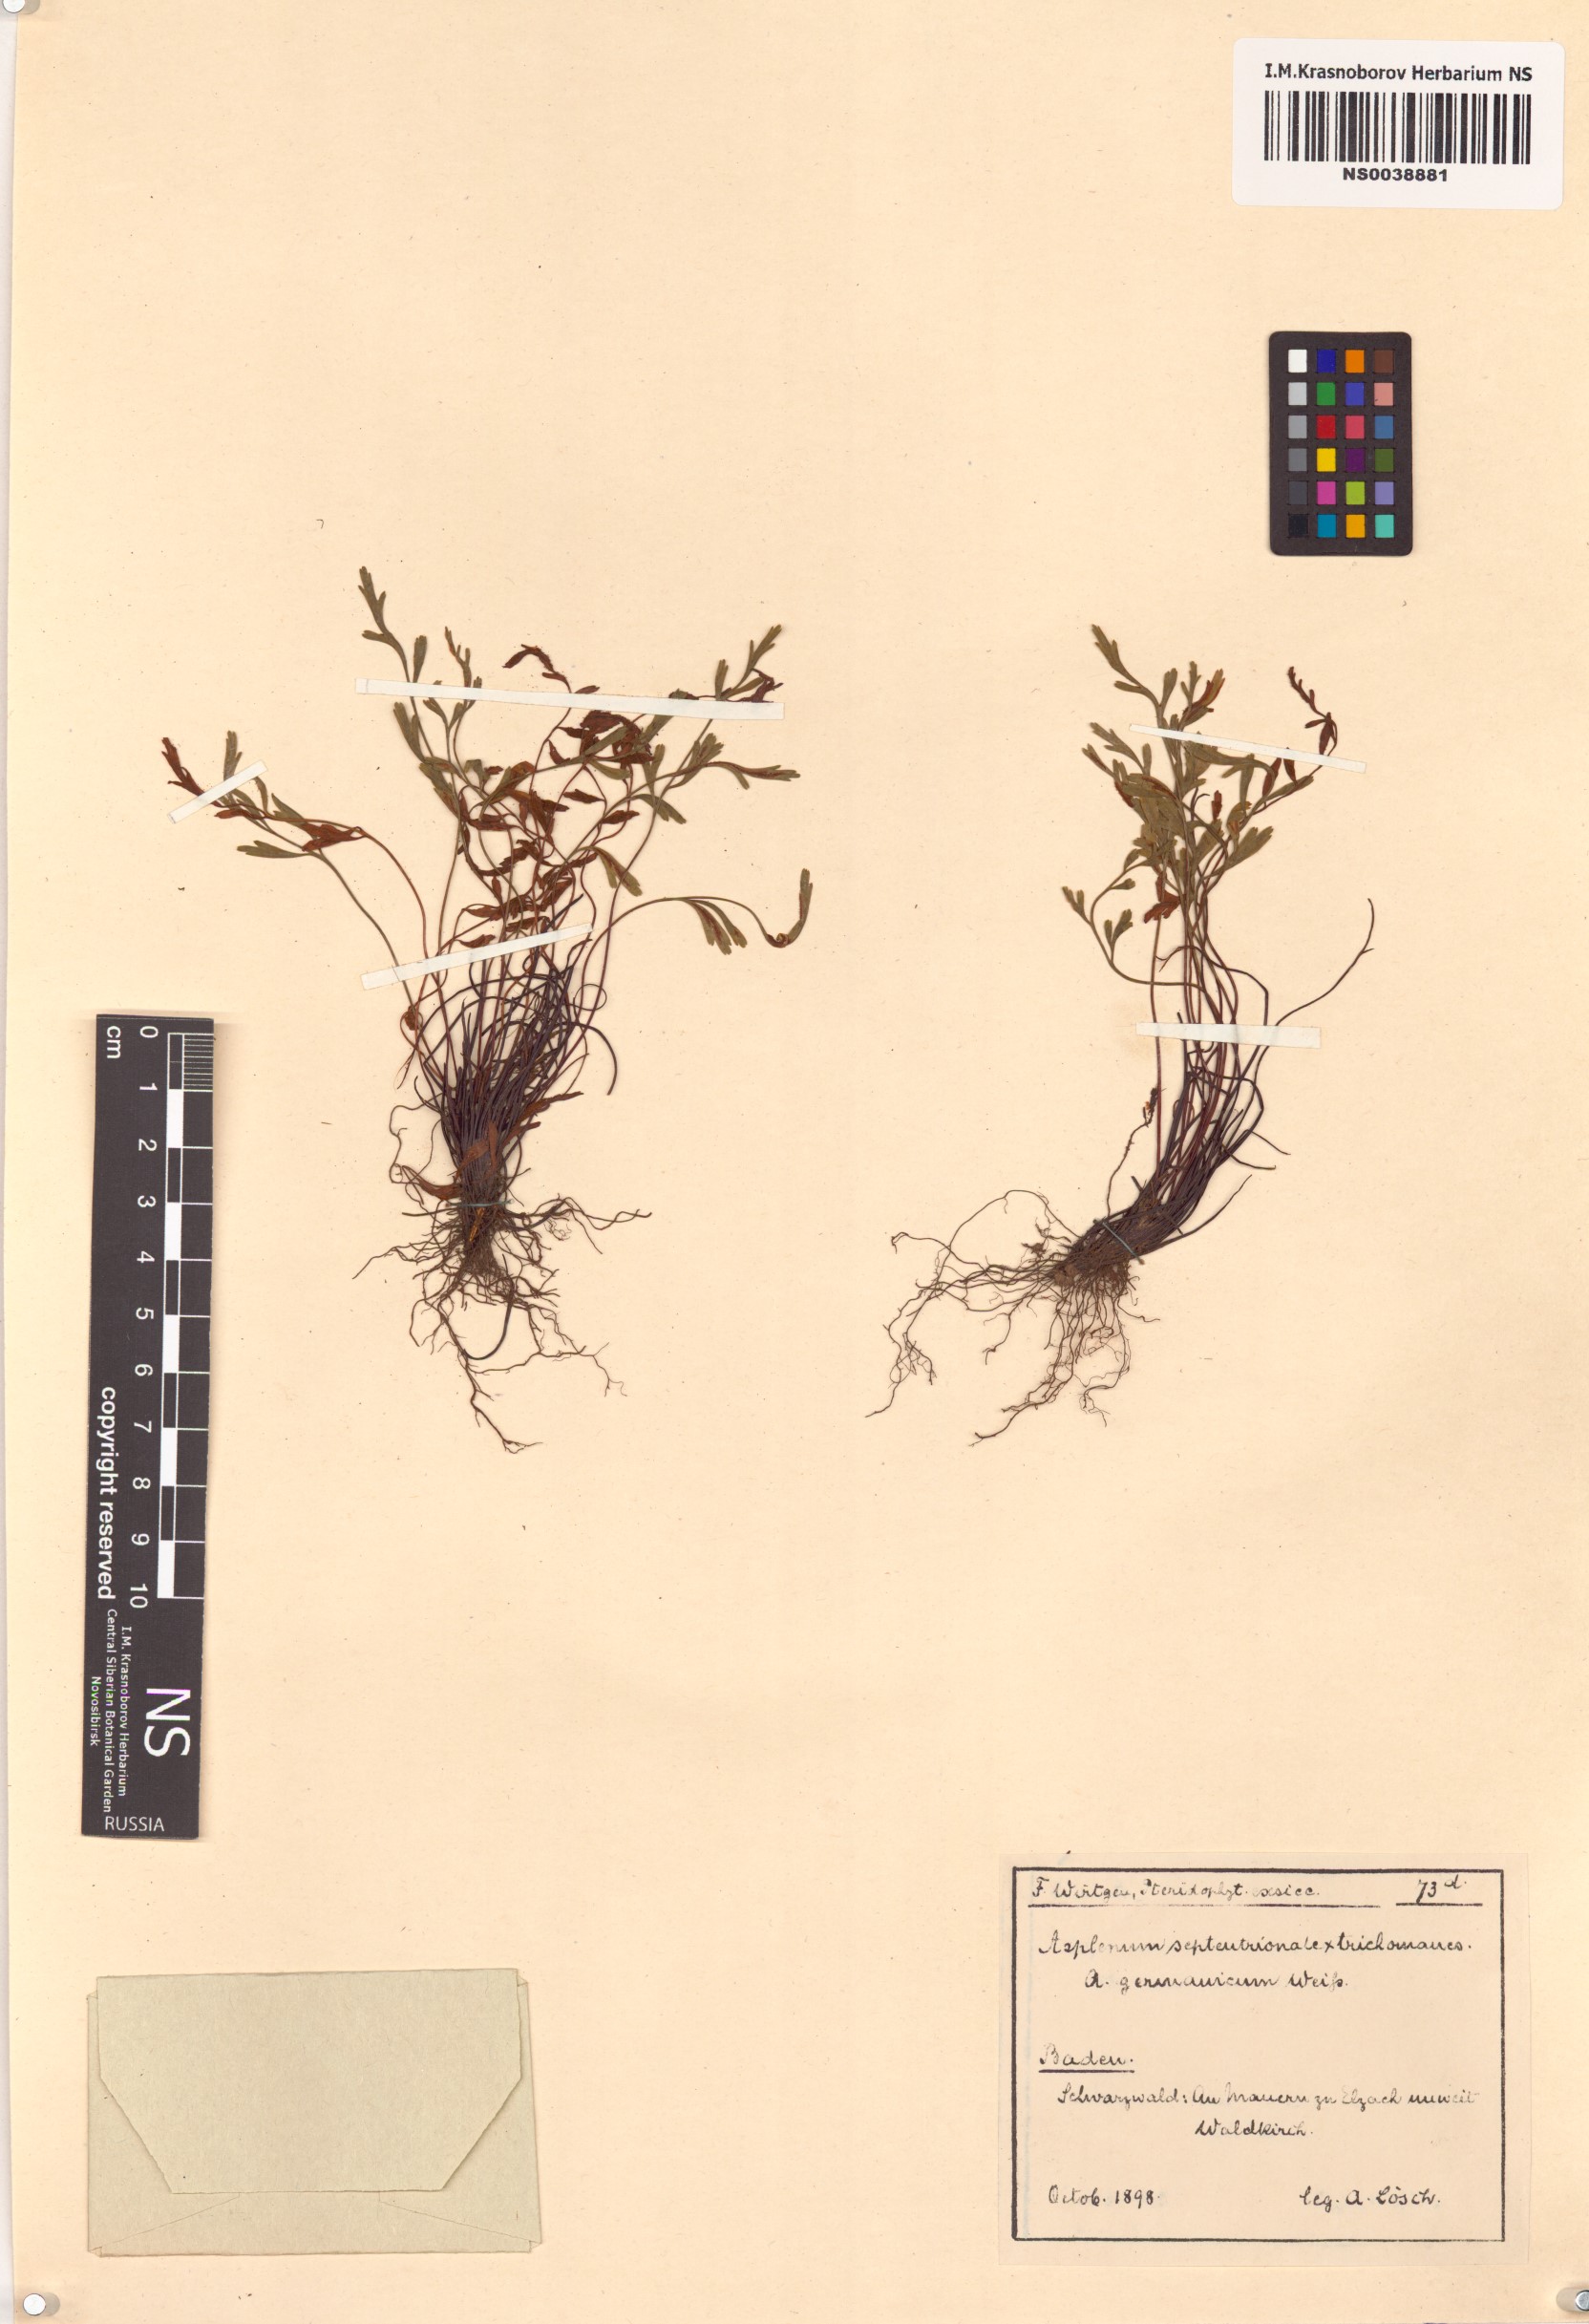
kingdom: Plantae
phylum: Tracheophyta
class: Polypodiopsida
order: Polypodiales
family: Aspleniaceae
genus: Asplenium
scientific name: Asplenium septentrionale
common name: Forked spleenwort
